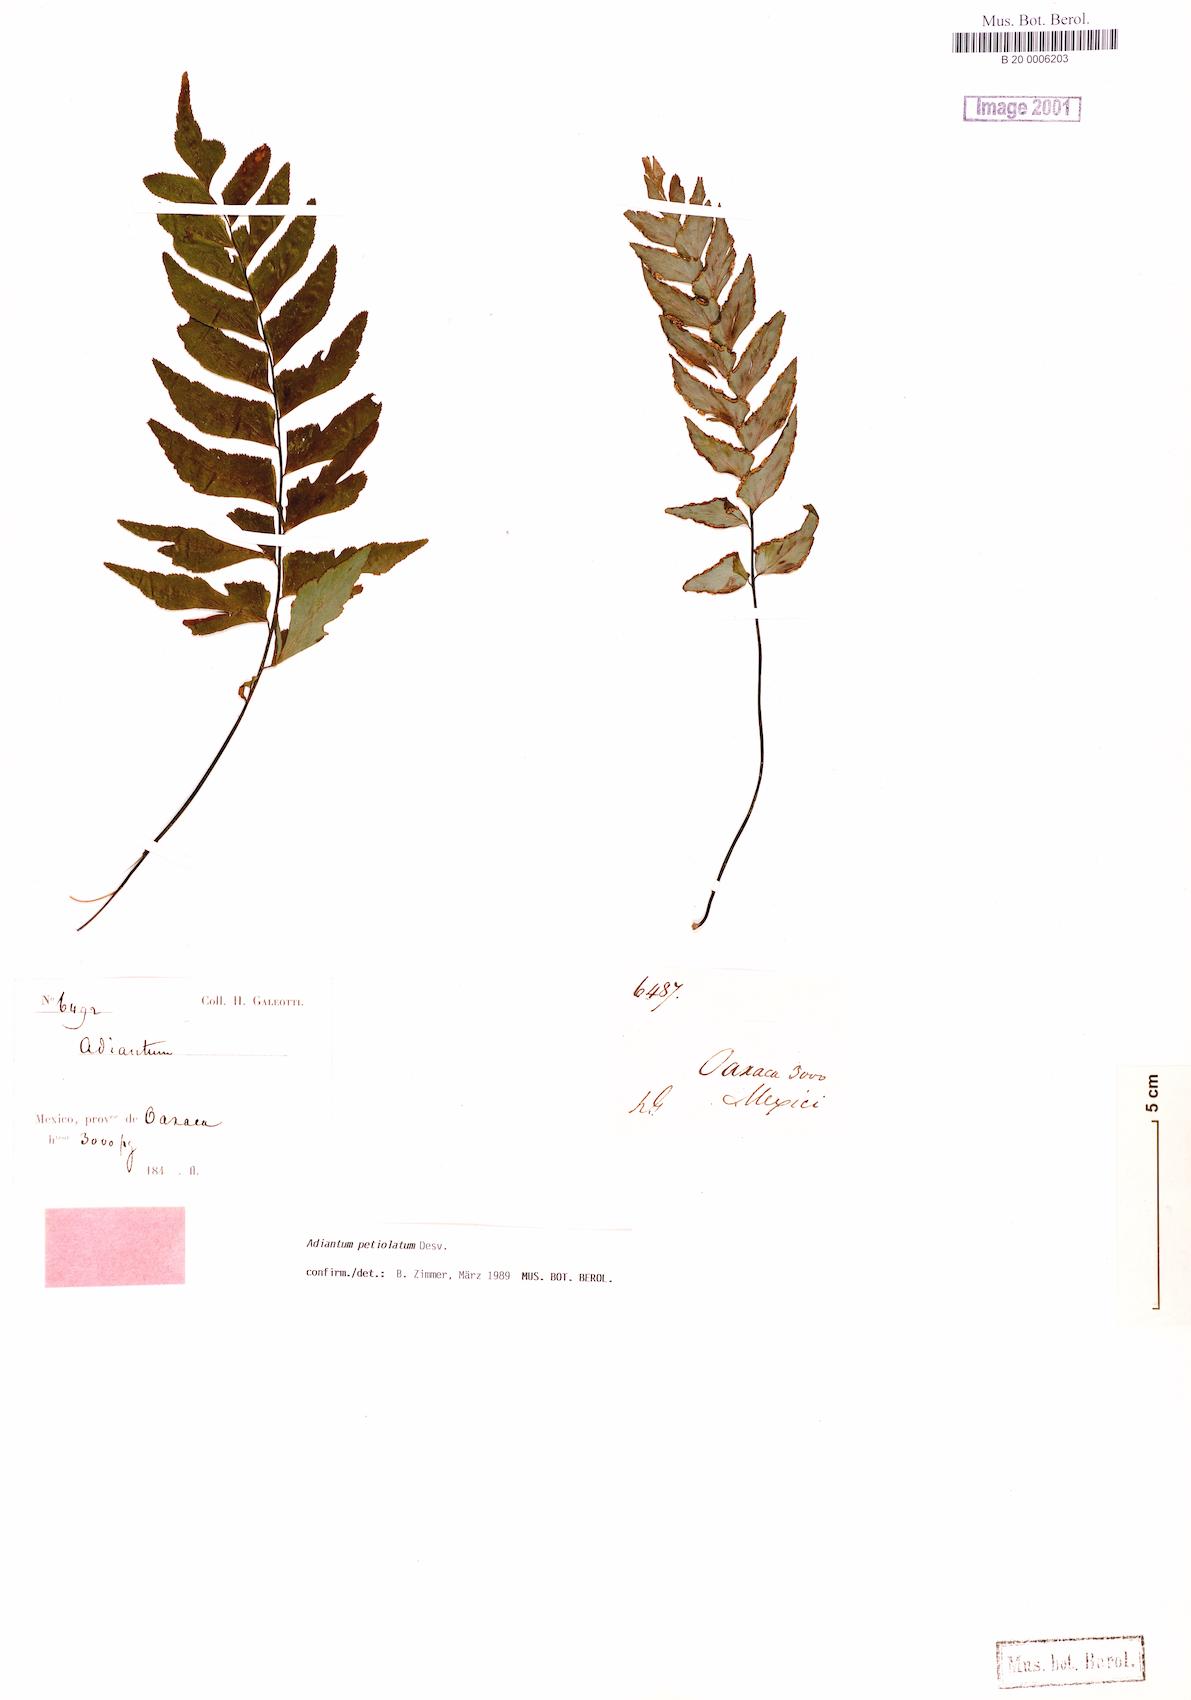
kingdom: Plantae
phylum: Tracheophyta
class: Polypodiopsida
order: Polypodiales
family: Pteridaceae
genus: Adiantum
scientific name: Adiantum petiolatum
